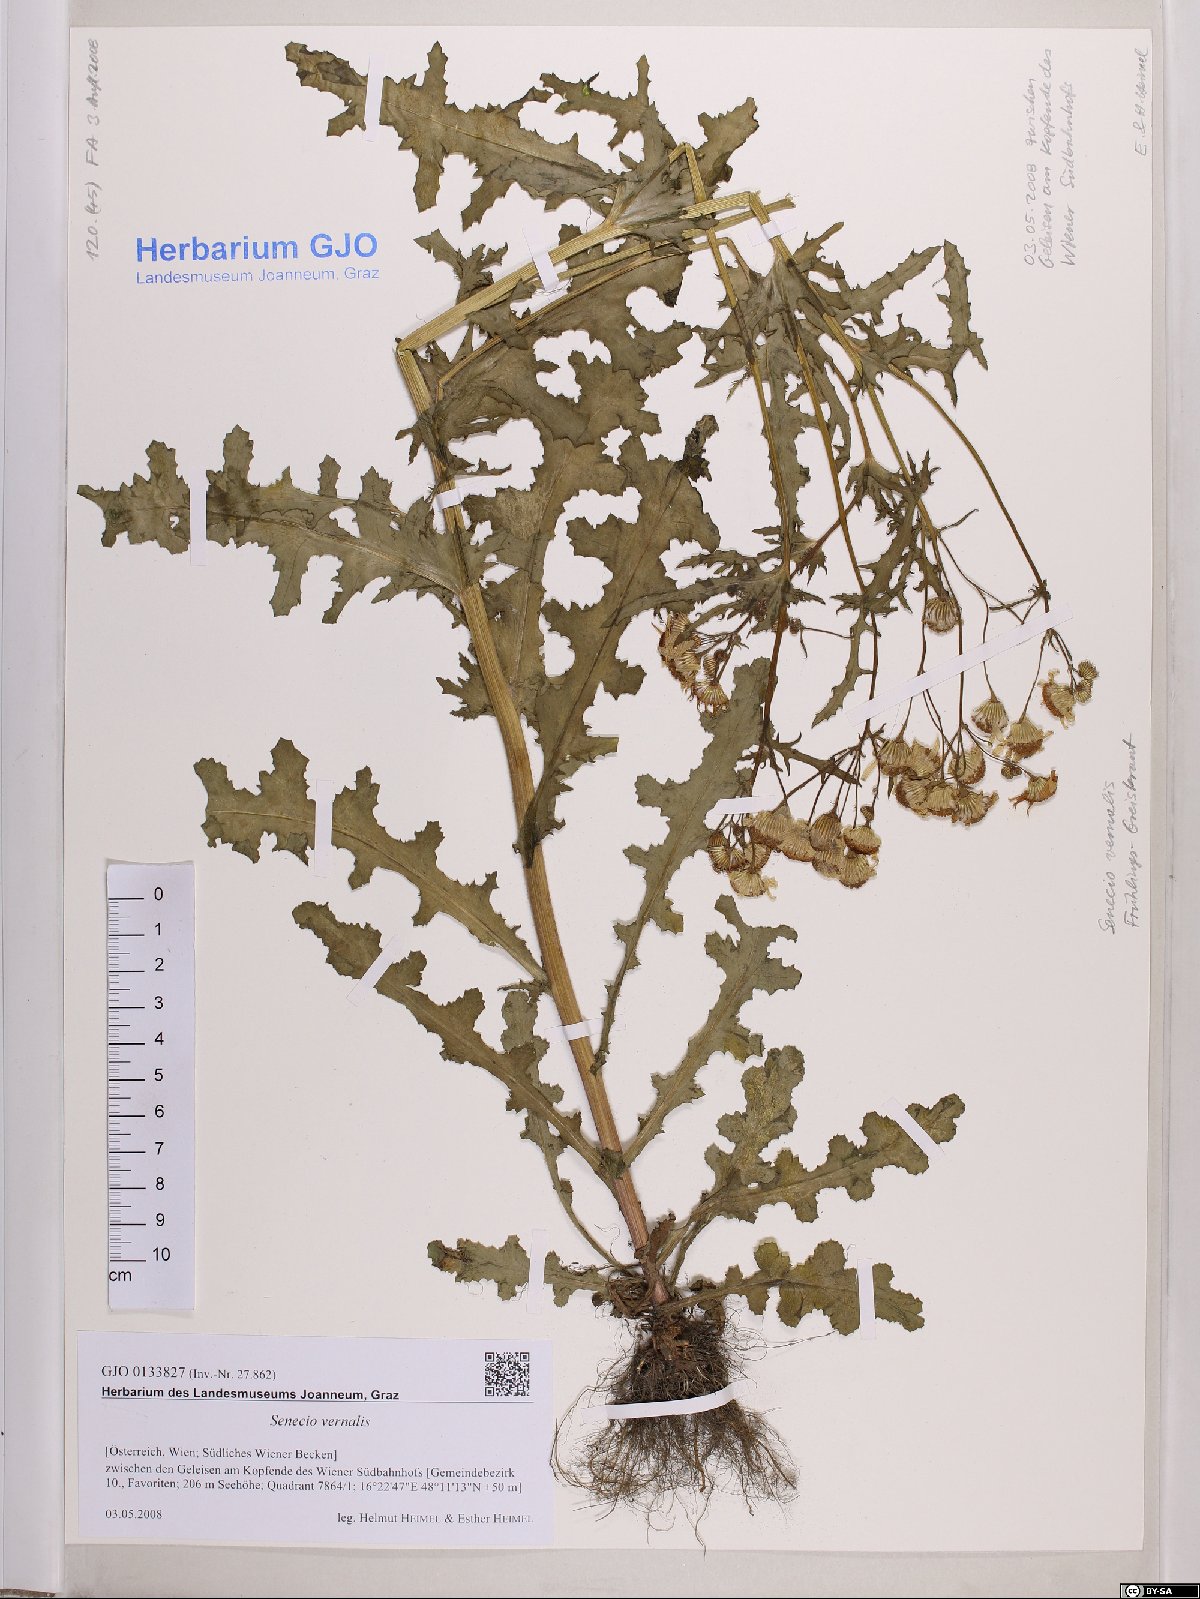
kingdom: Plantae
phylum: Tracheophyta
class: Magnoliopsida
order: Asterales
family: Asteraceae
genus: Senecio
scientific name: Senecio vernalis
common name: Eastern groundsel
